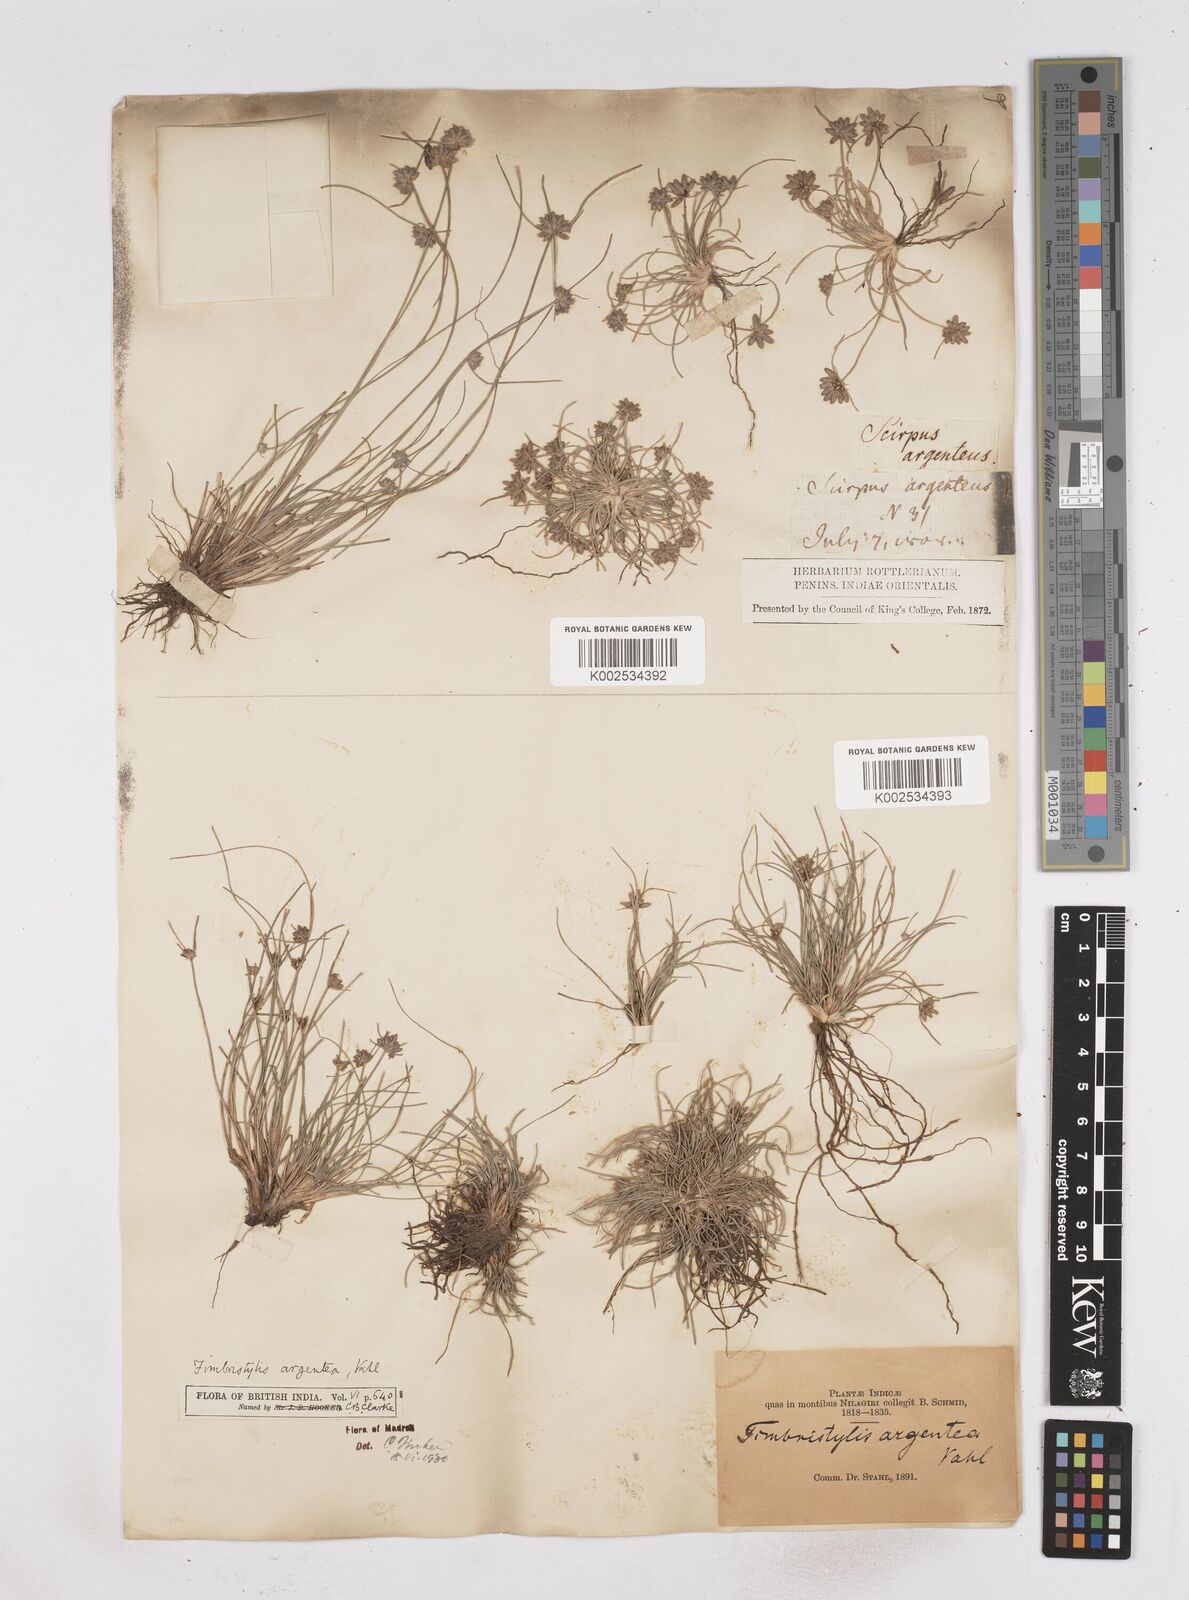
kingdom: Plantae
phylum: Tracheophyta
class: Liliopsida
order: Poales
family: Cyperaceae
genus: Fimbristylis
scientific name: Fimbristylis argentea
